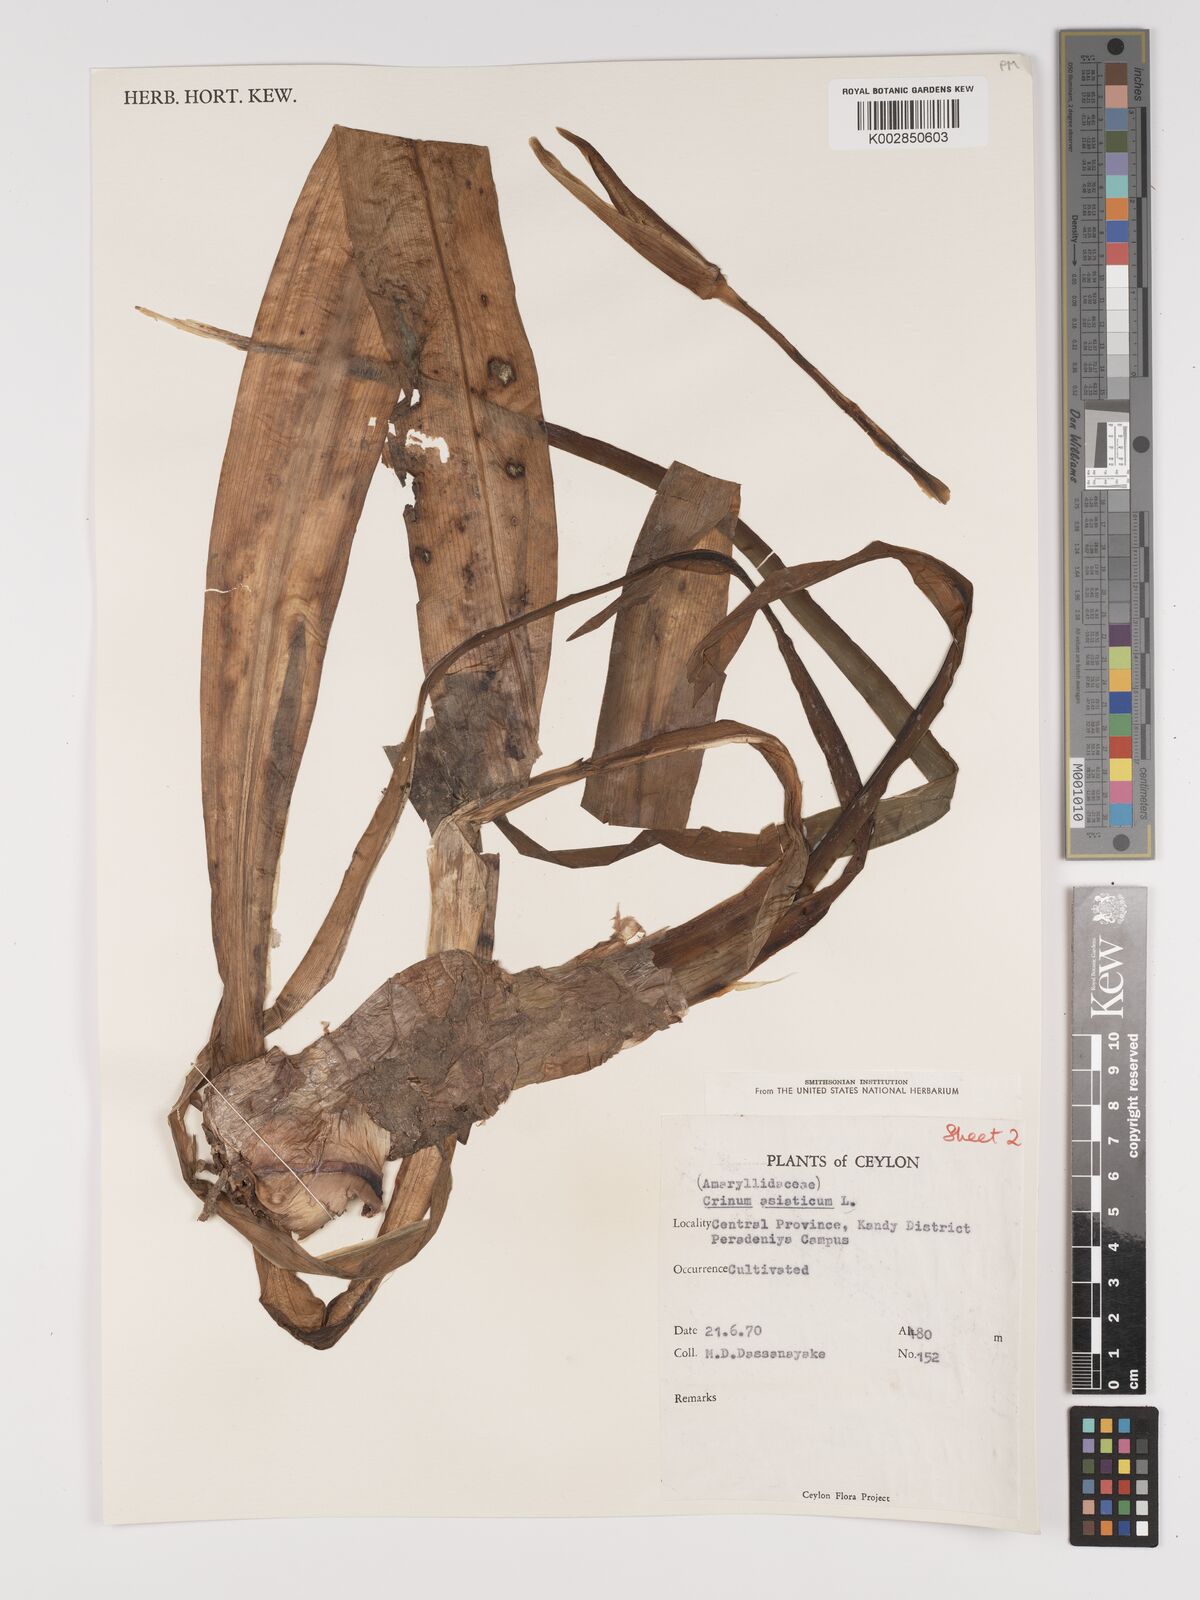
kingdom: Plantae
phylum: Tracheophyta
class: Liliopsida
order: Asparagales
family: Amaryllidaceae
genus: Crinum
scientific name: Crinum asiaticum
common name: Poisonbulb
